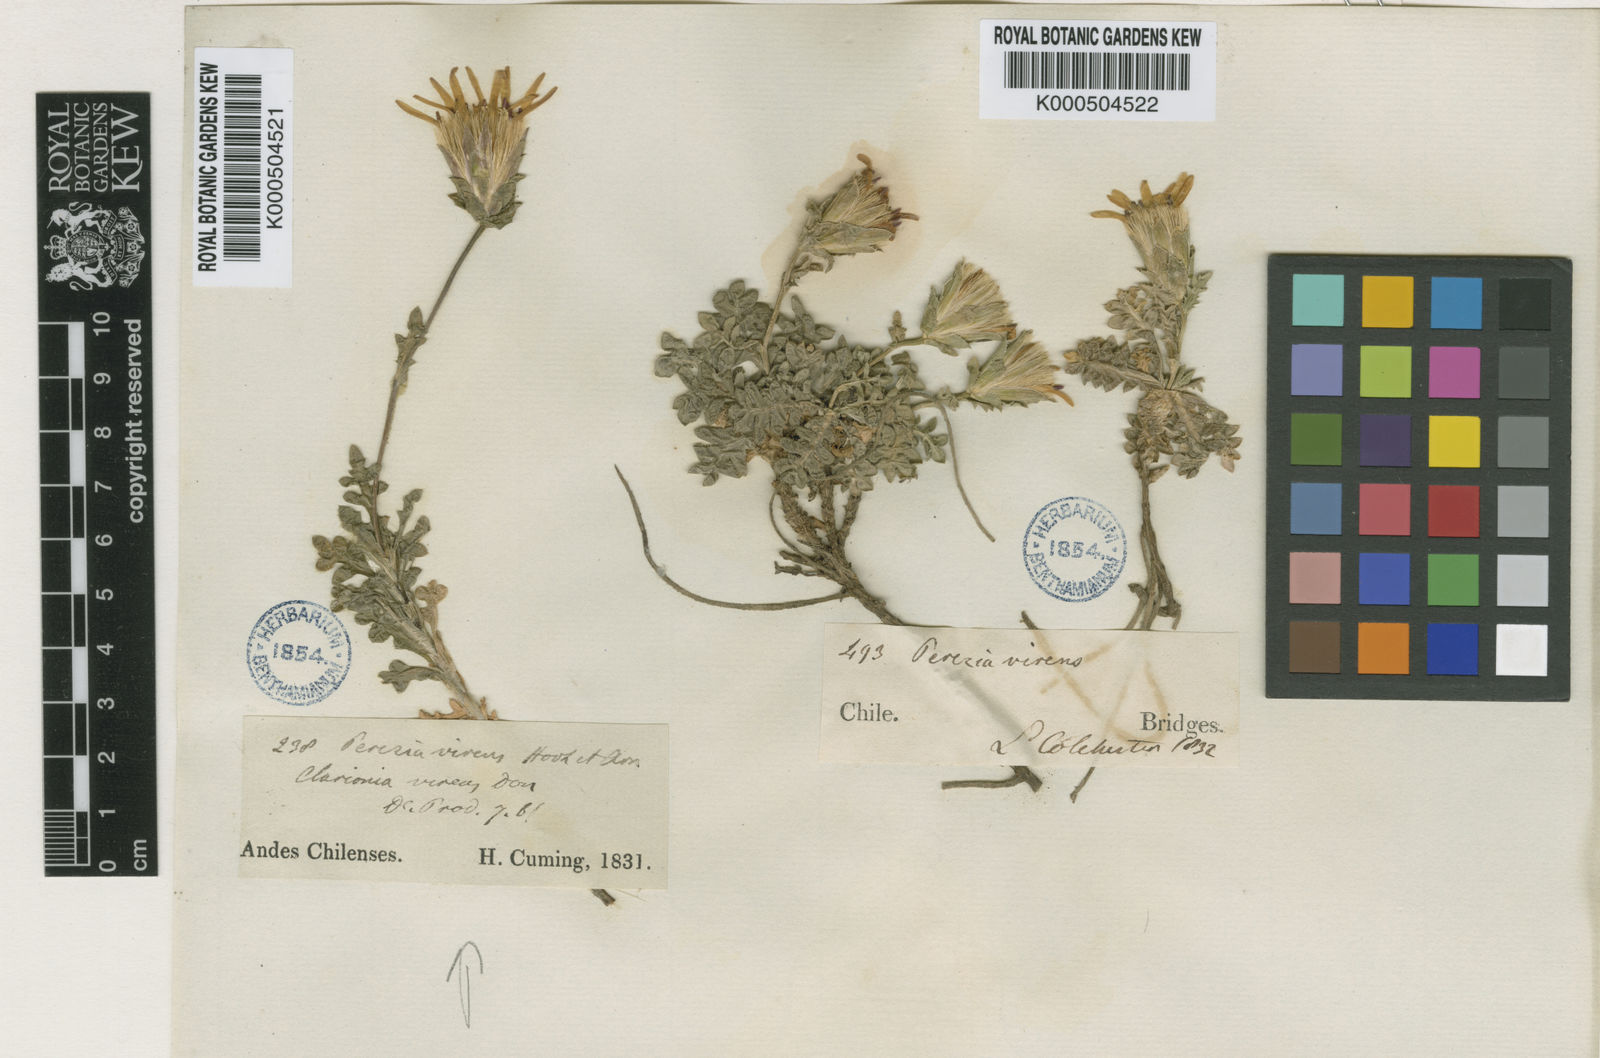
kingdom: Plantae
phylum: Tracheophyta
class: Magnoliopsida
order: Asterales
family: Asteraceae
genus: Perezia
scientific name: Perezia poeppigii
